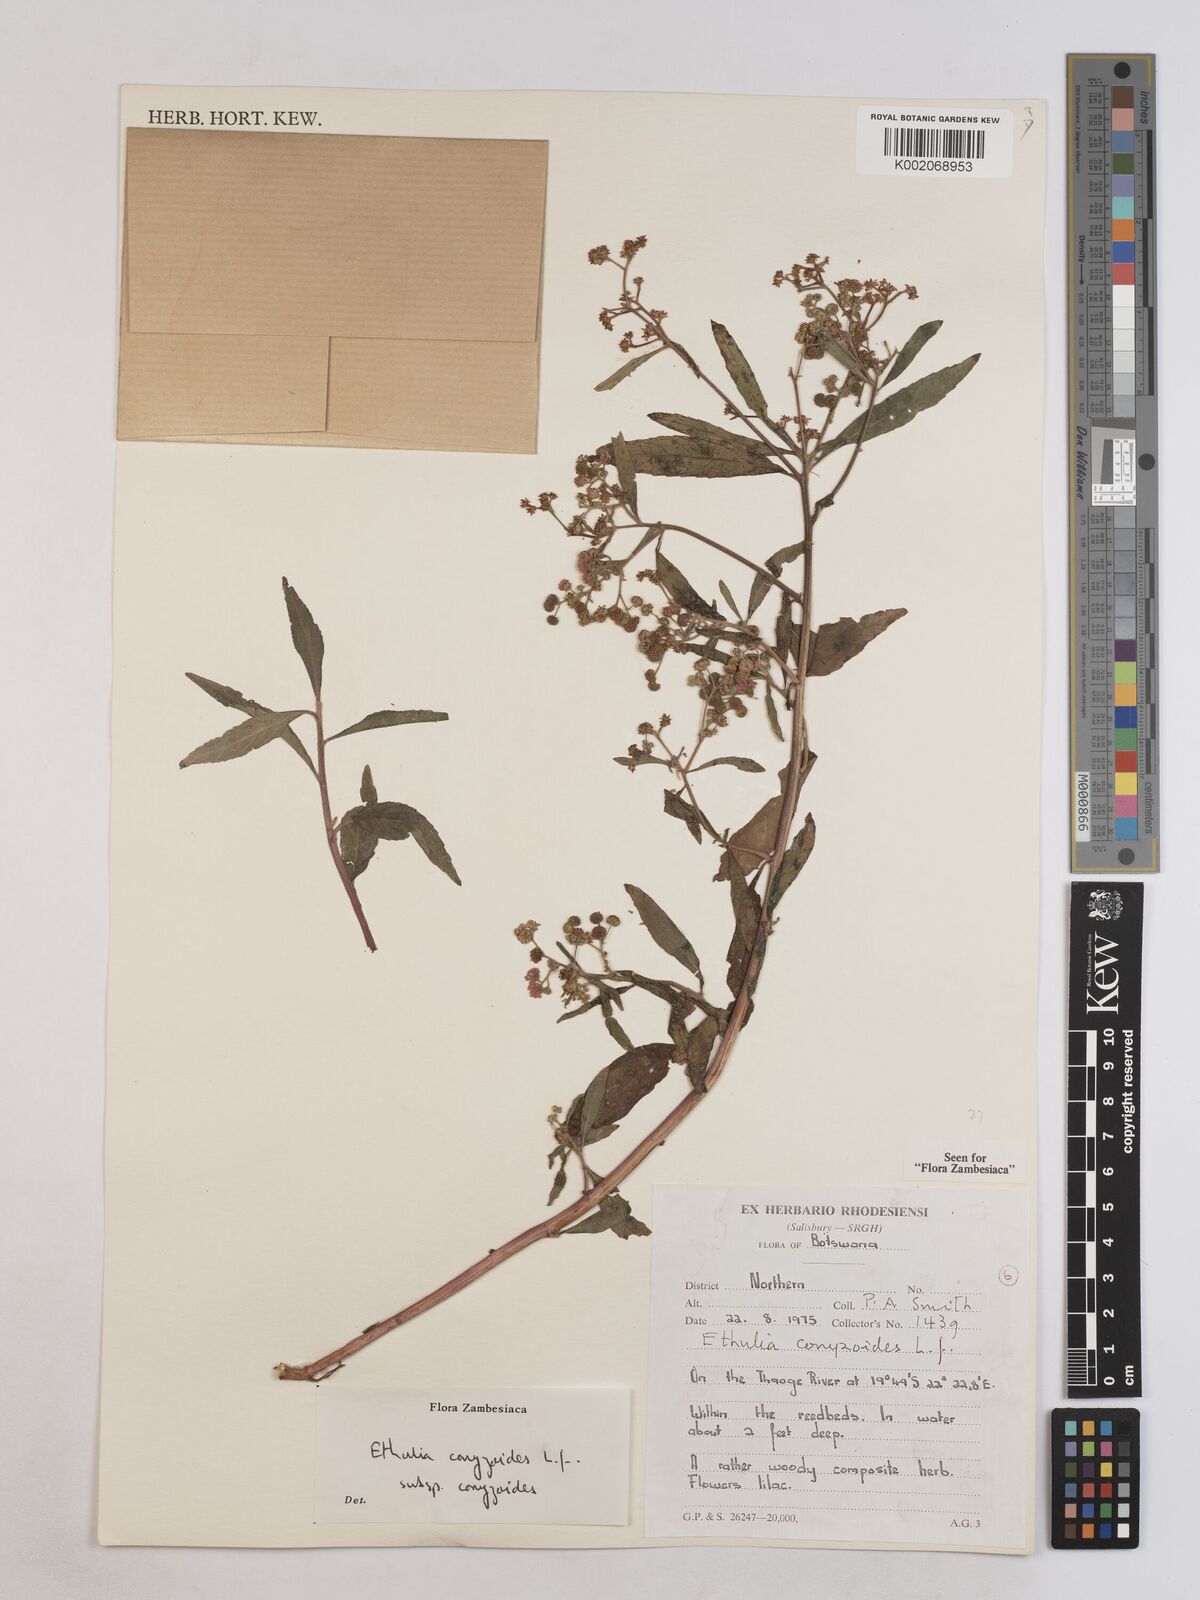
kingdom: Plantae
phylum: Tracheophyta
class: Magnoliopsida
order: Asterales
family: Asteraceae
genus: Ethulia
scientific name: Ethulia conyzoides
